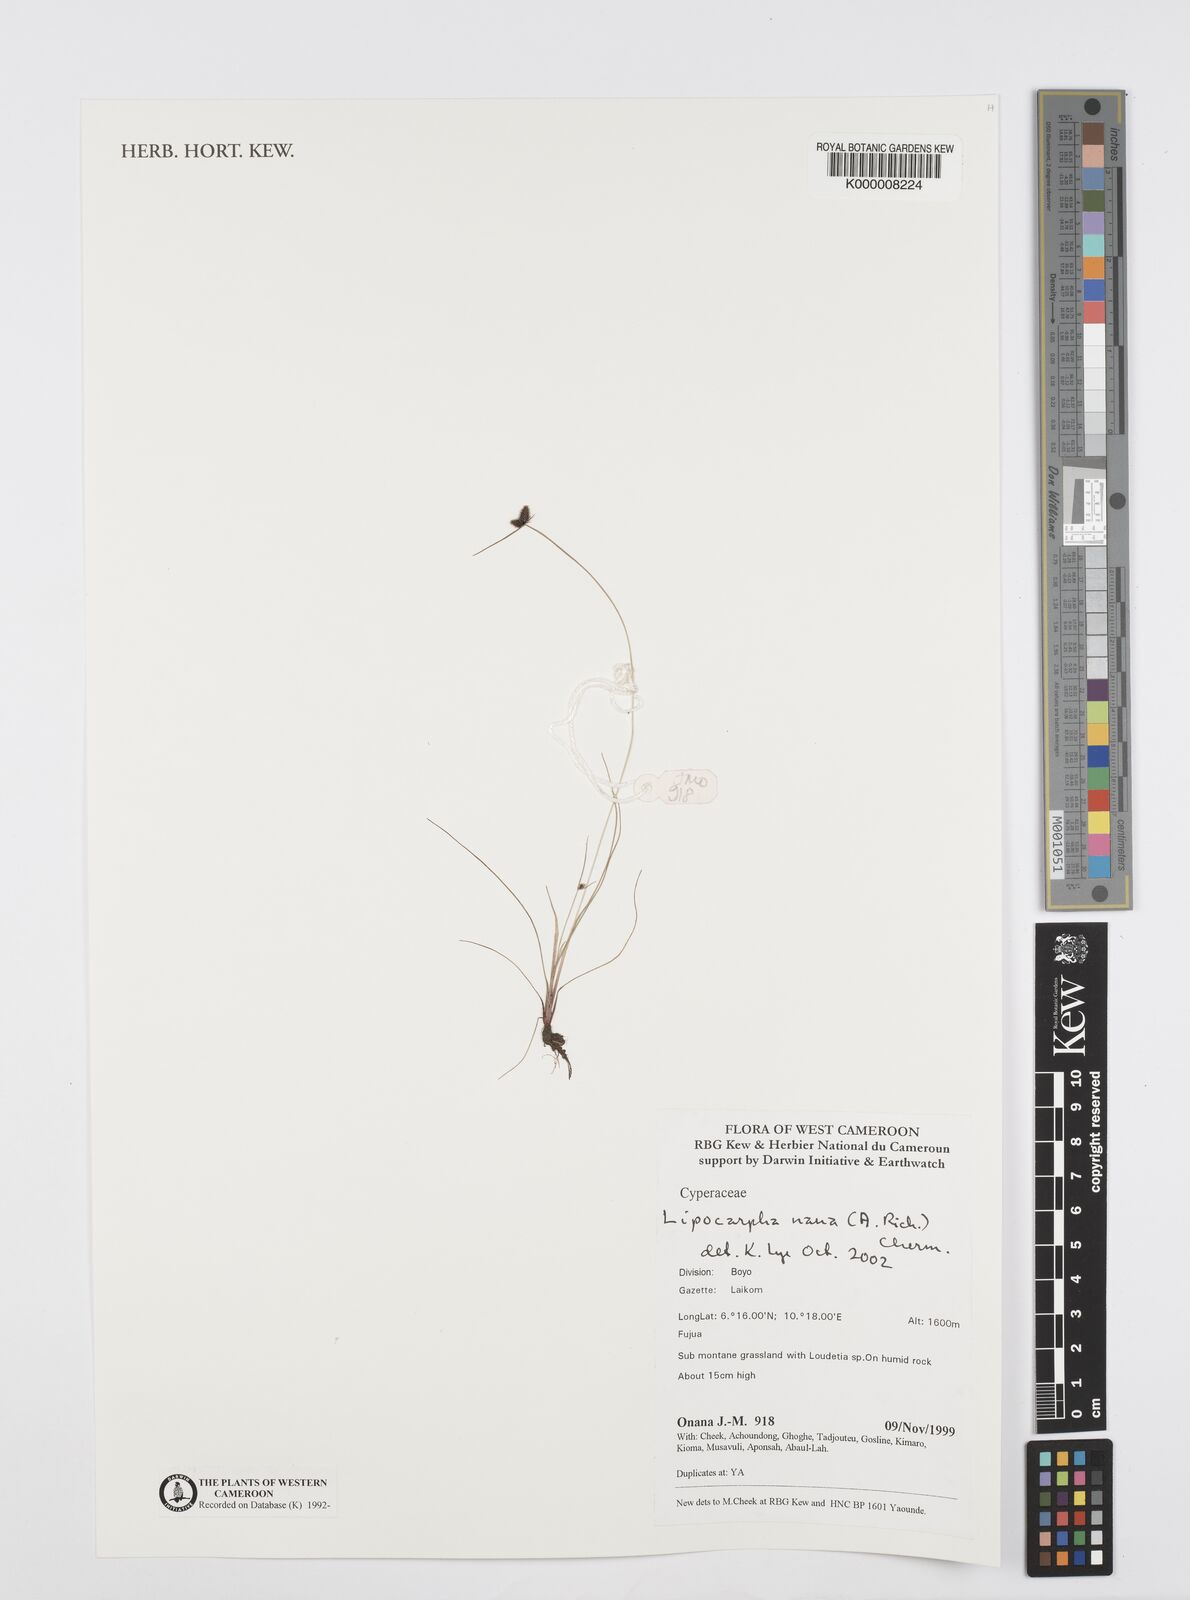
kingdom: Plantae
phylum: Tracheophyta
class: Liliopsida
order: Poales
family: Cyperaceae
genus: Cyperus
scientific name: Cyperus persquarrosus
